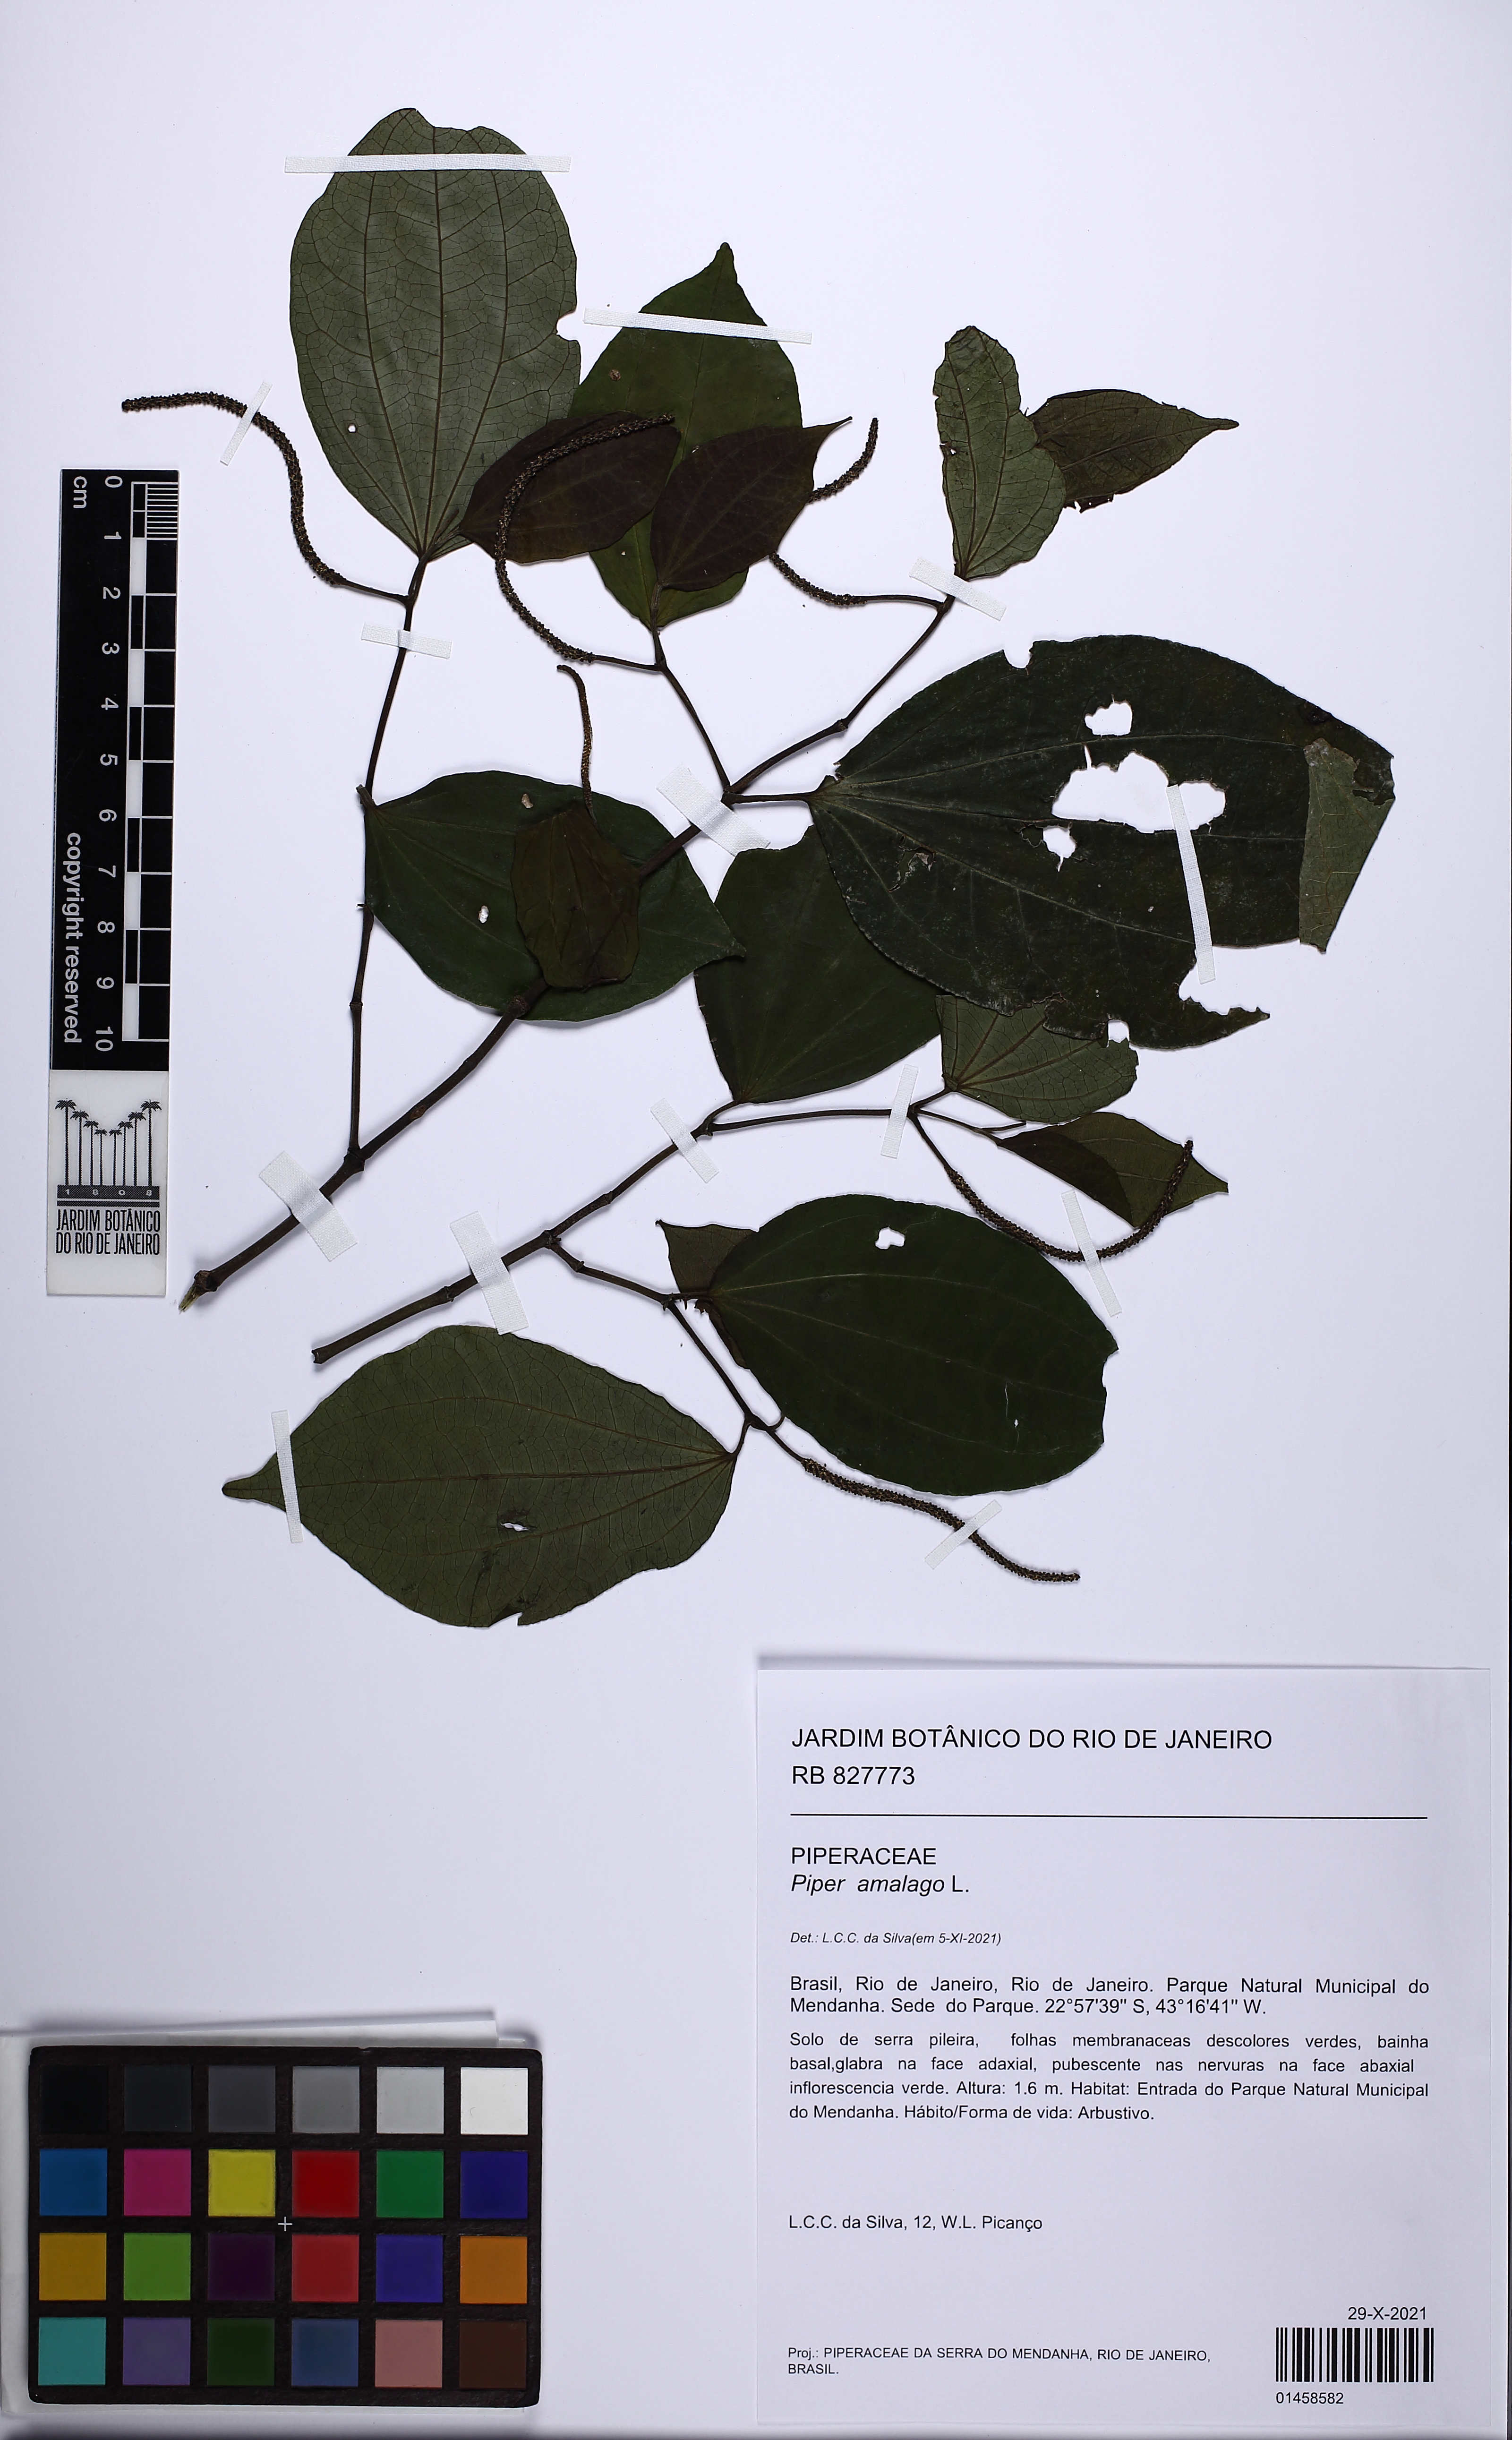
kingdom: Plantae
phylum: Tracheophyta
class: Magnoliopsida
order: Piperales
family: Piperaceae
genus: Piper
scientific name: Piper amalago
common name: Pepper-elder
